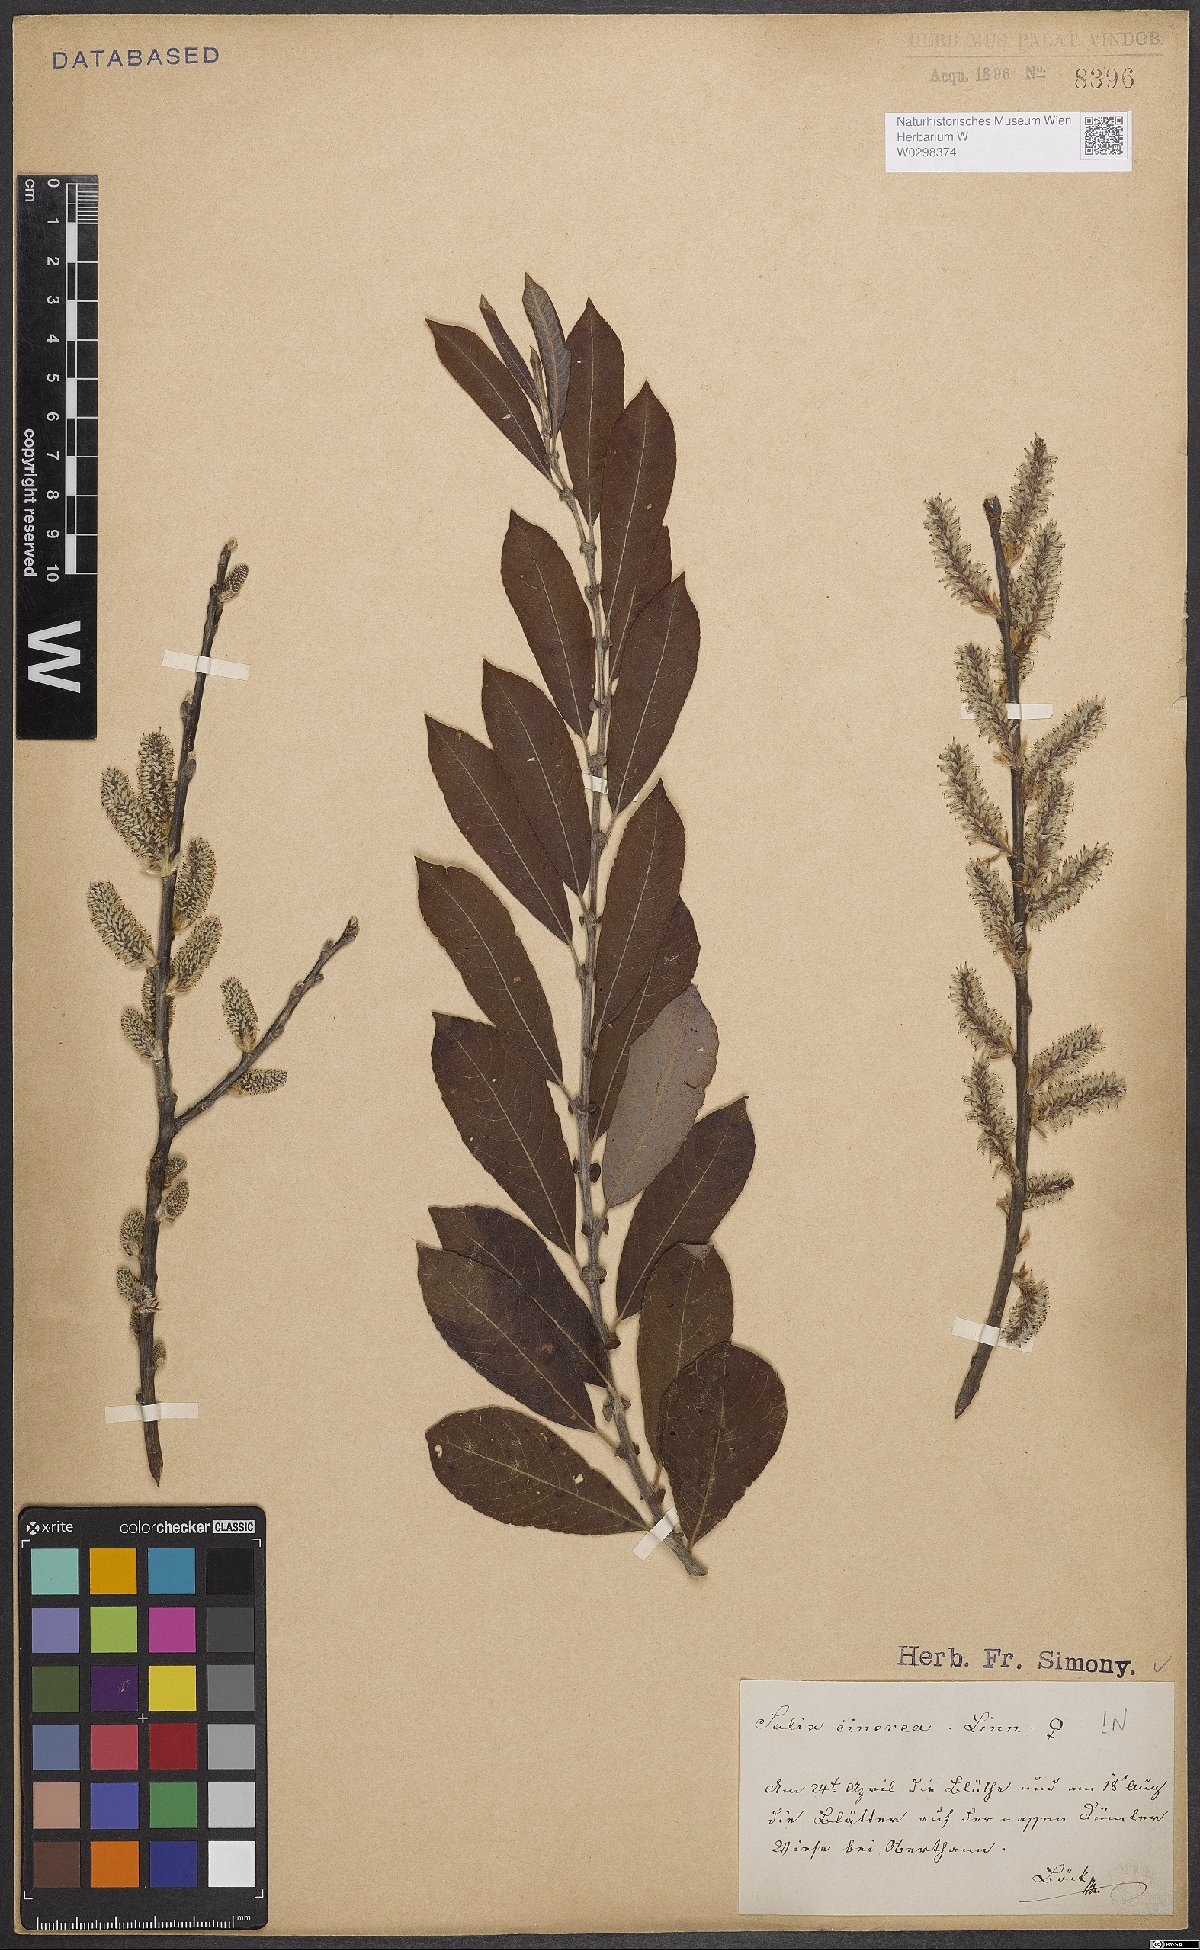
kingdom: Plantae
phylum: Tracheophyta
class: Magnoliopsida
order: Malpighiales
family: Salicaceae
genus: Salix
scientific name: Salix cinerea
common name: Common sallow
